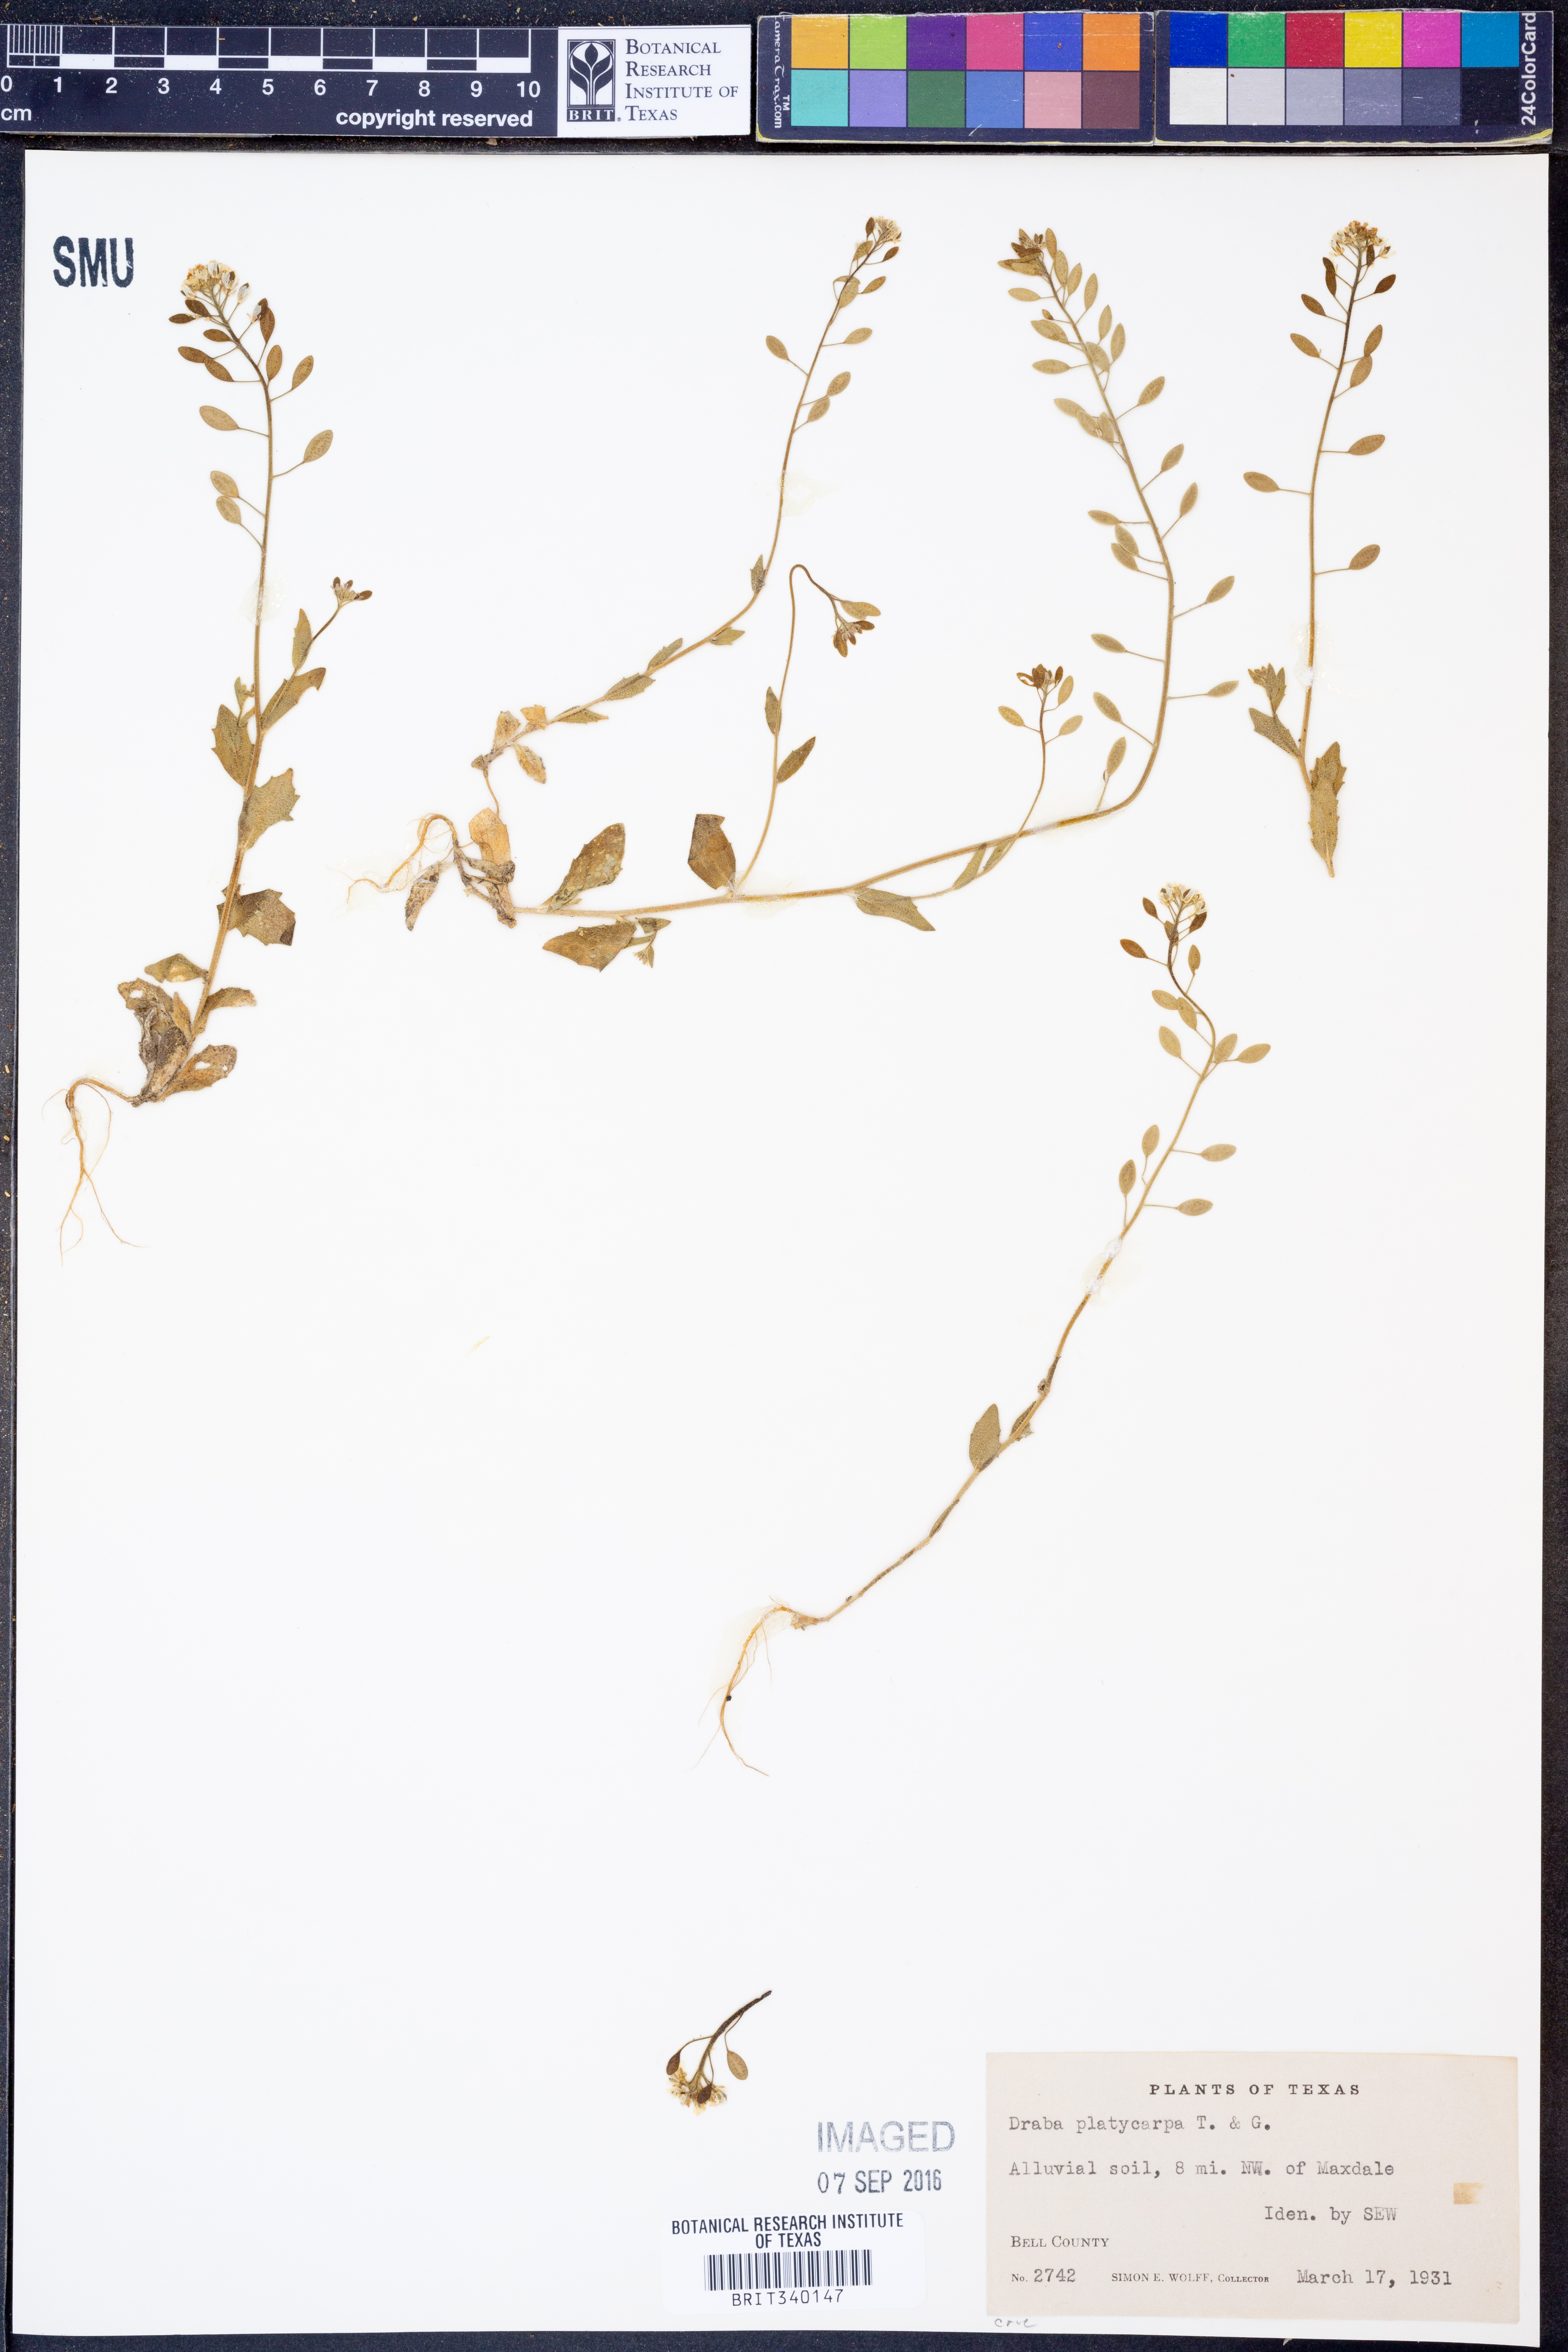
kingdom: Plantae
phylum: Tracheophyta
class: Magnoliopsida
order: Brassicales
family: Brassicaceae
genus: Tomostima
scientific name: Tomostima platycarpa
